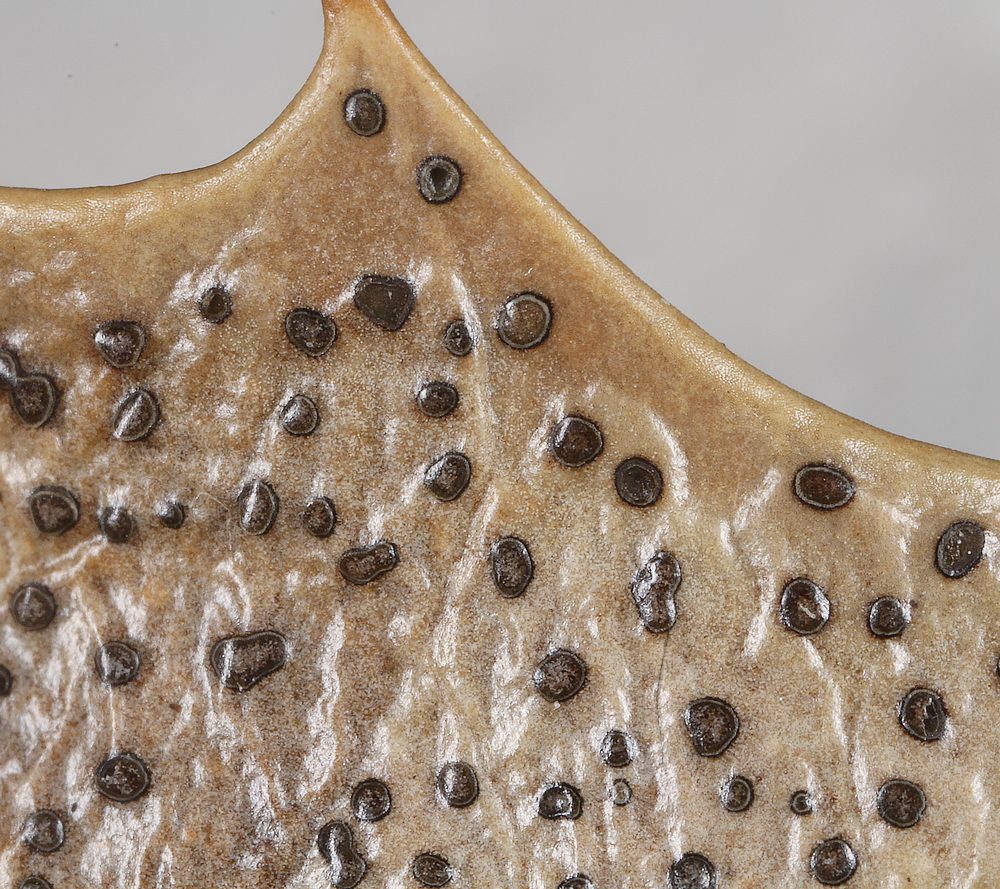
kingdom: Fungi
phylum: Ascomycota
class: Leotiomycetes
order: Helotiales
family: Cenangiaceae
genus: Trochila
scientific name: Trochila ilicina
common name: kristtorn-lågskive
